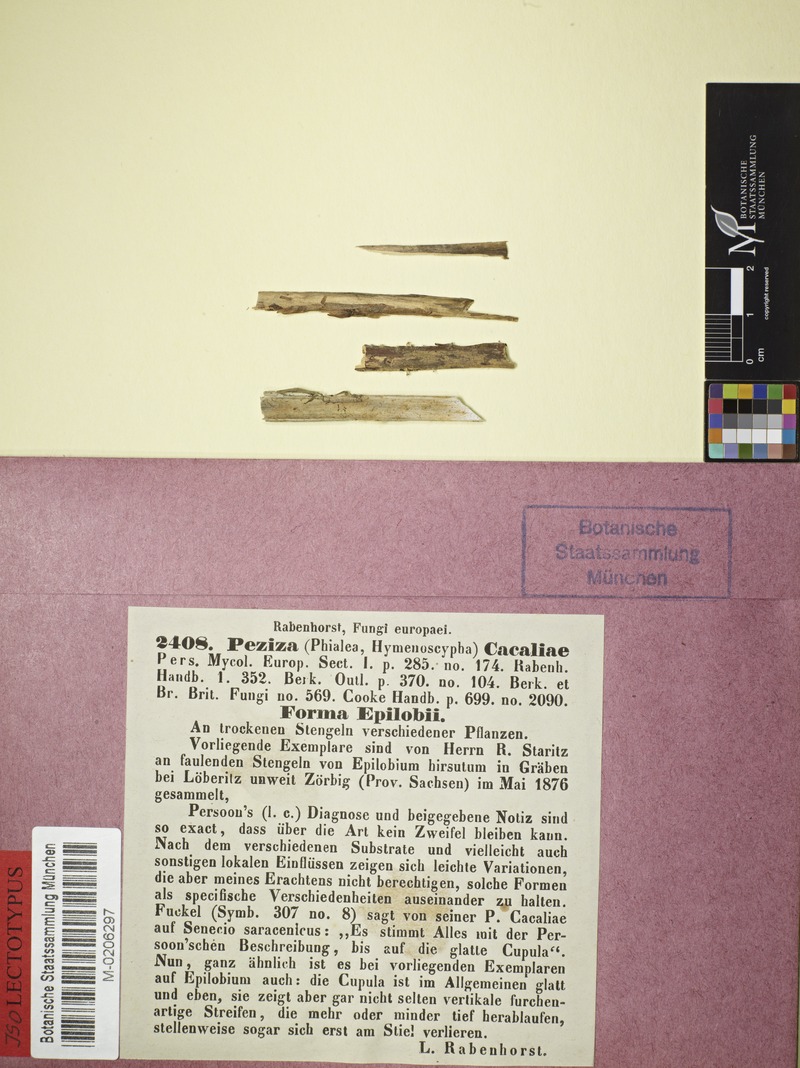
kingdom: Fungi
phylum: Ascomycota
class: Leotiomycetes
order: Helotiales
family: Helotiaceae
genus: Cyathicula
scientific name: Cyathicula cyathoidea
